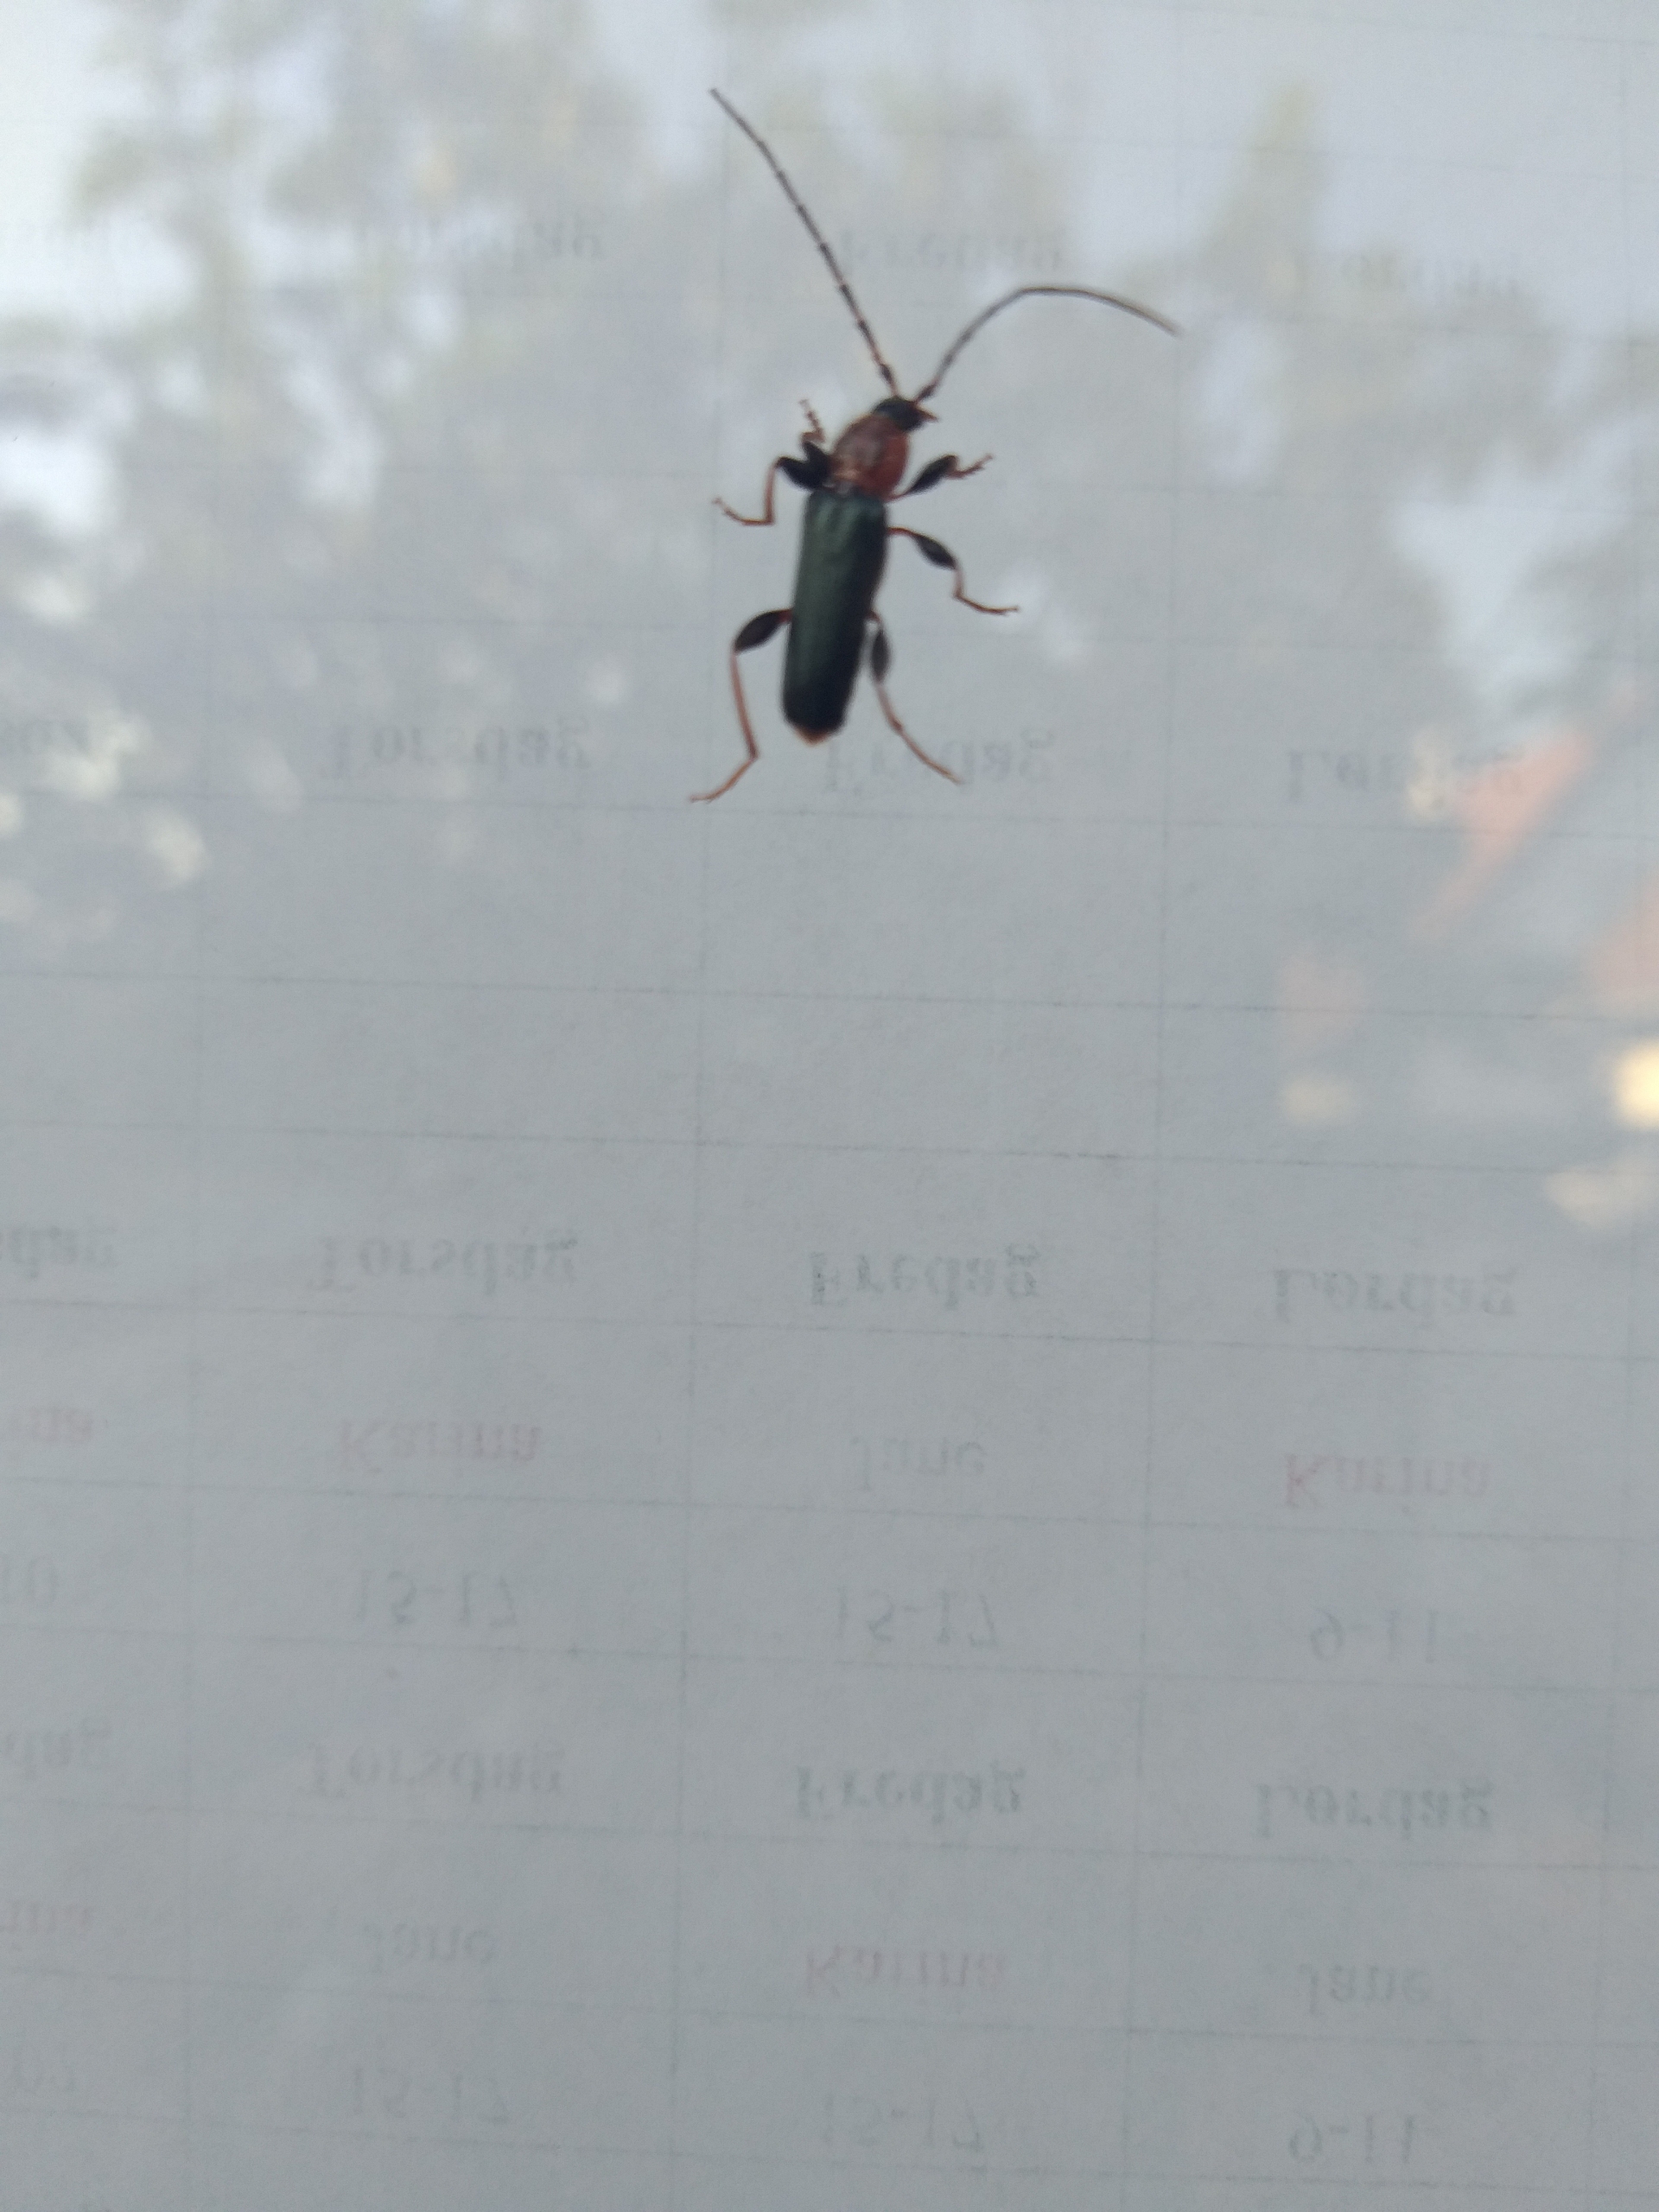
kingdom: Animalia
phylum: Arthropoda
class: Insecta
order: Coleoptera
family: Cerambycidae
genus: Phymatodes
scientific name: Phymatodes testaceus
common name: Bøgebuk
